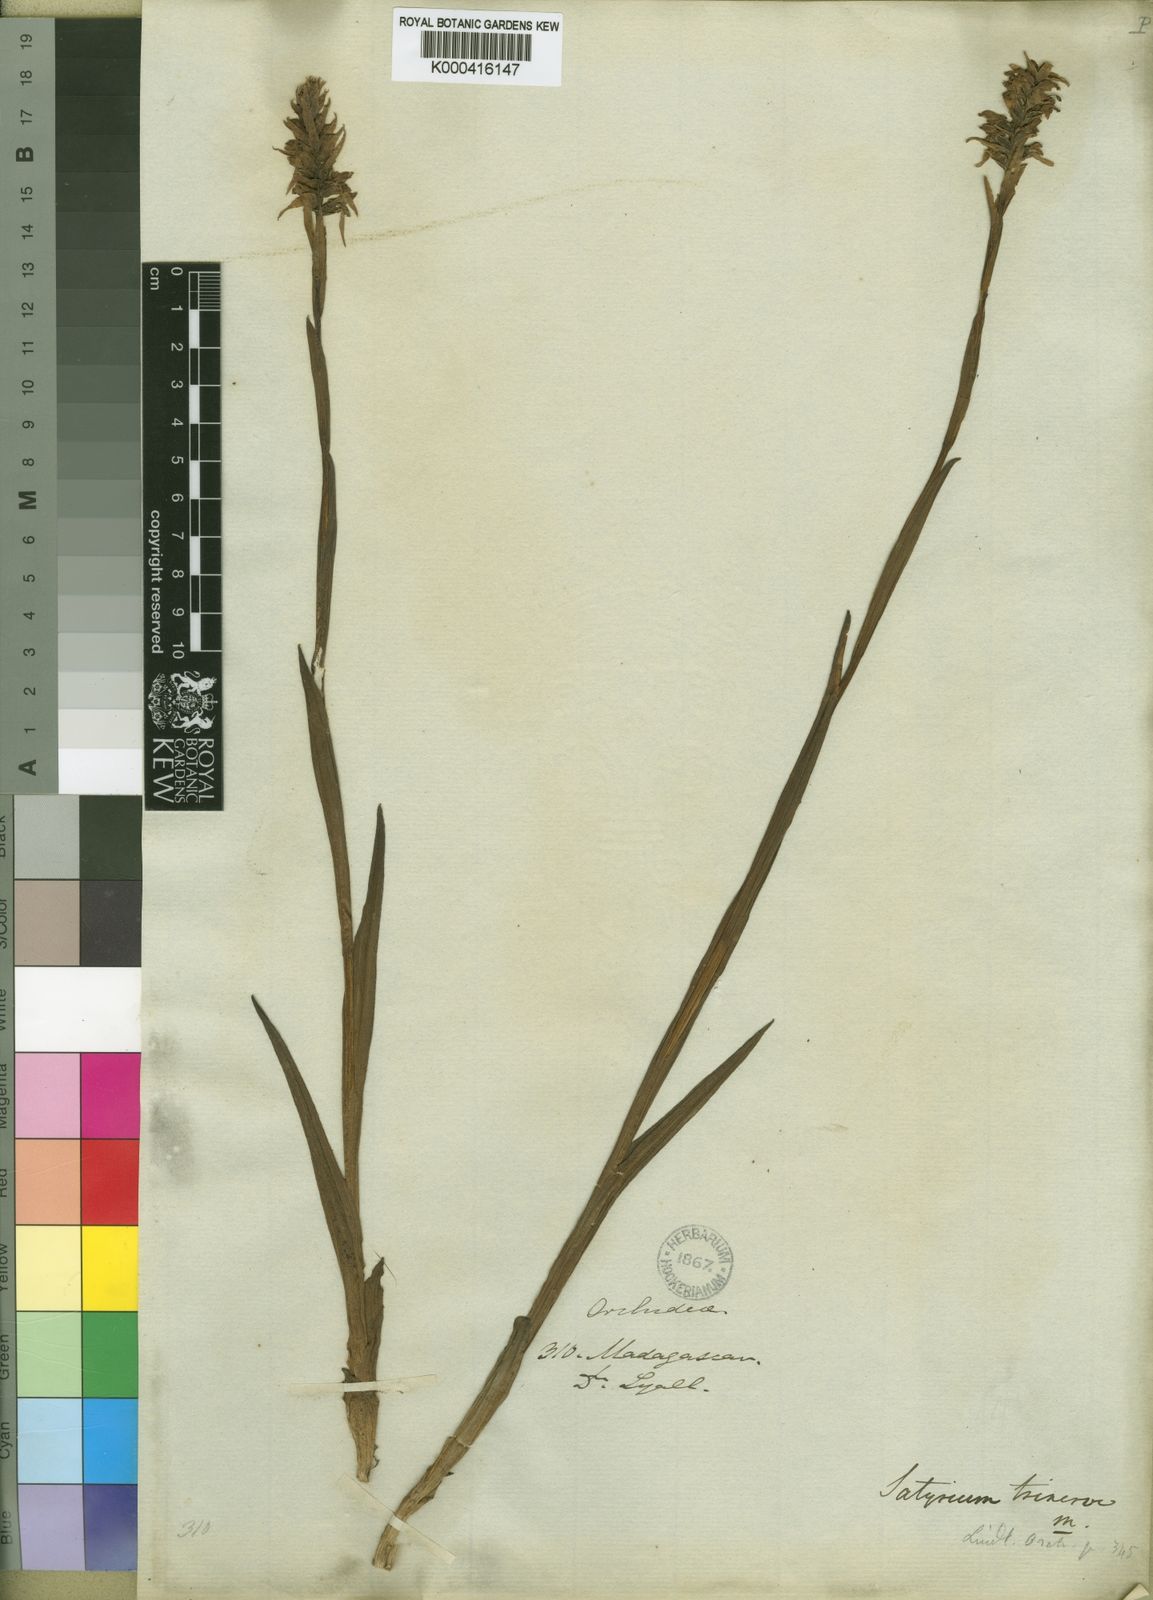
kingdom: Plantae
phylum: Tracheophyta
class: Liliopsida
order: Asparagales
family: Orchidaceae
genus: Satyrium
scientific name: Satyrium trinerve
